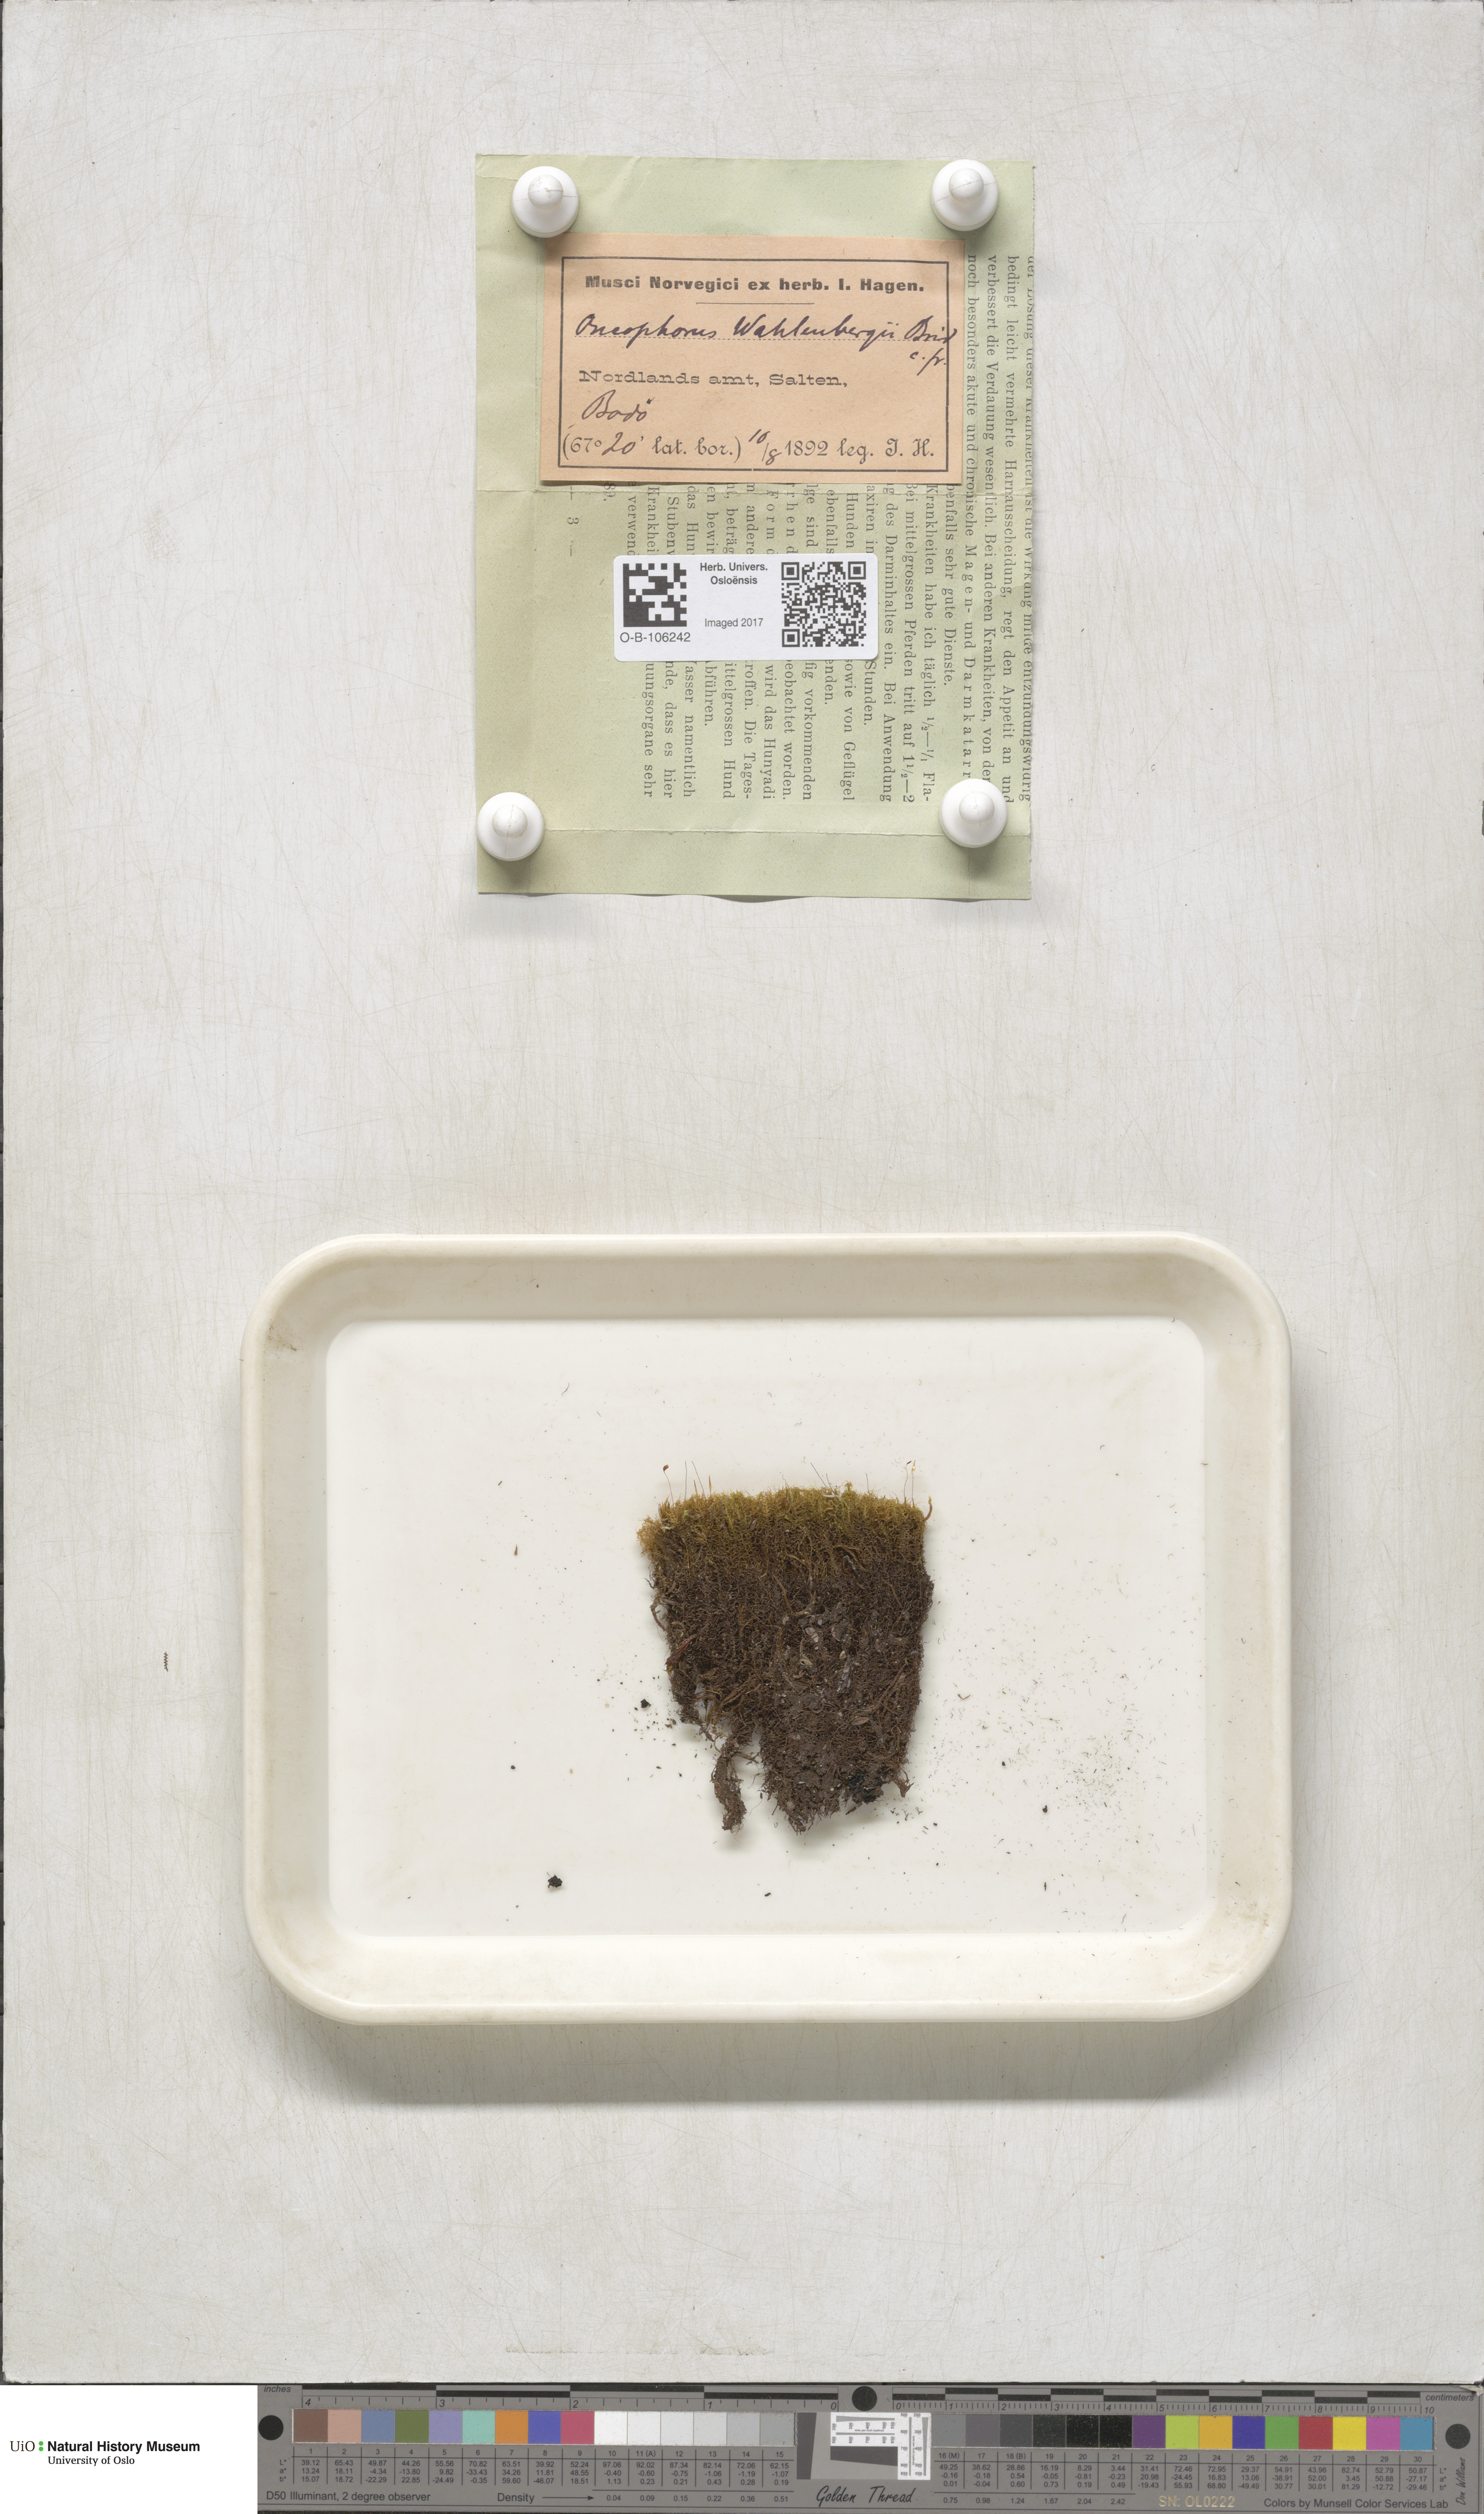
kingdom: Plantae
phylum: Bryophyta
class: Bryopsida
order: Dicranales
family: Rhabdoweisiaceae
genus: Brideliella
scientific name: Brideliella wahlenbergii
